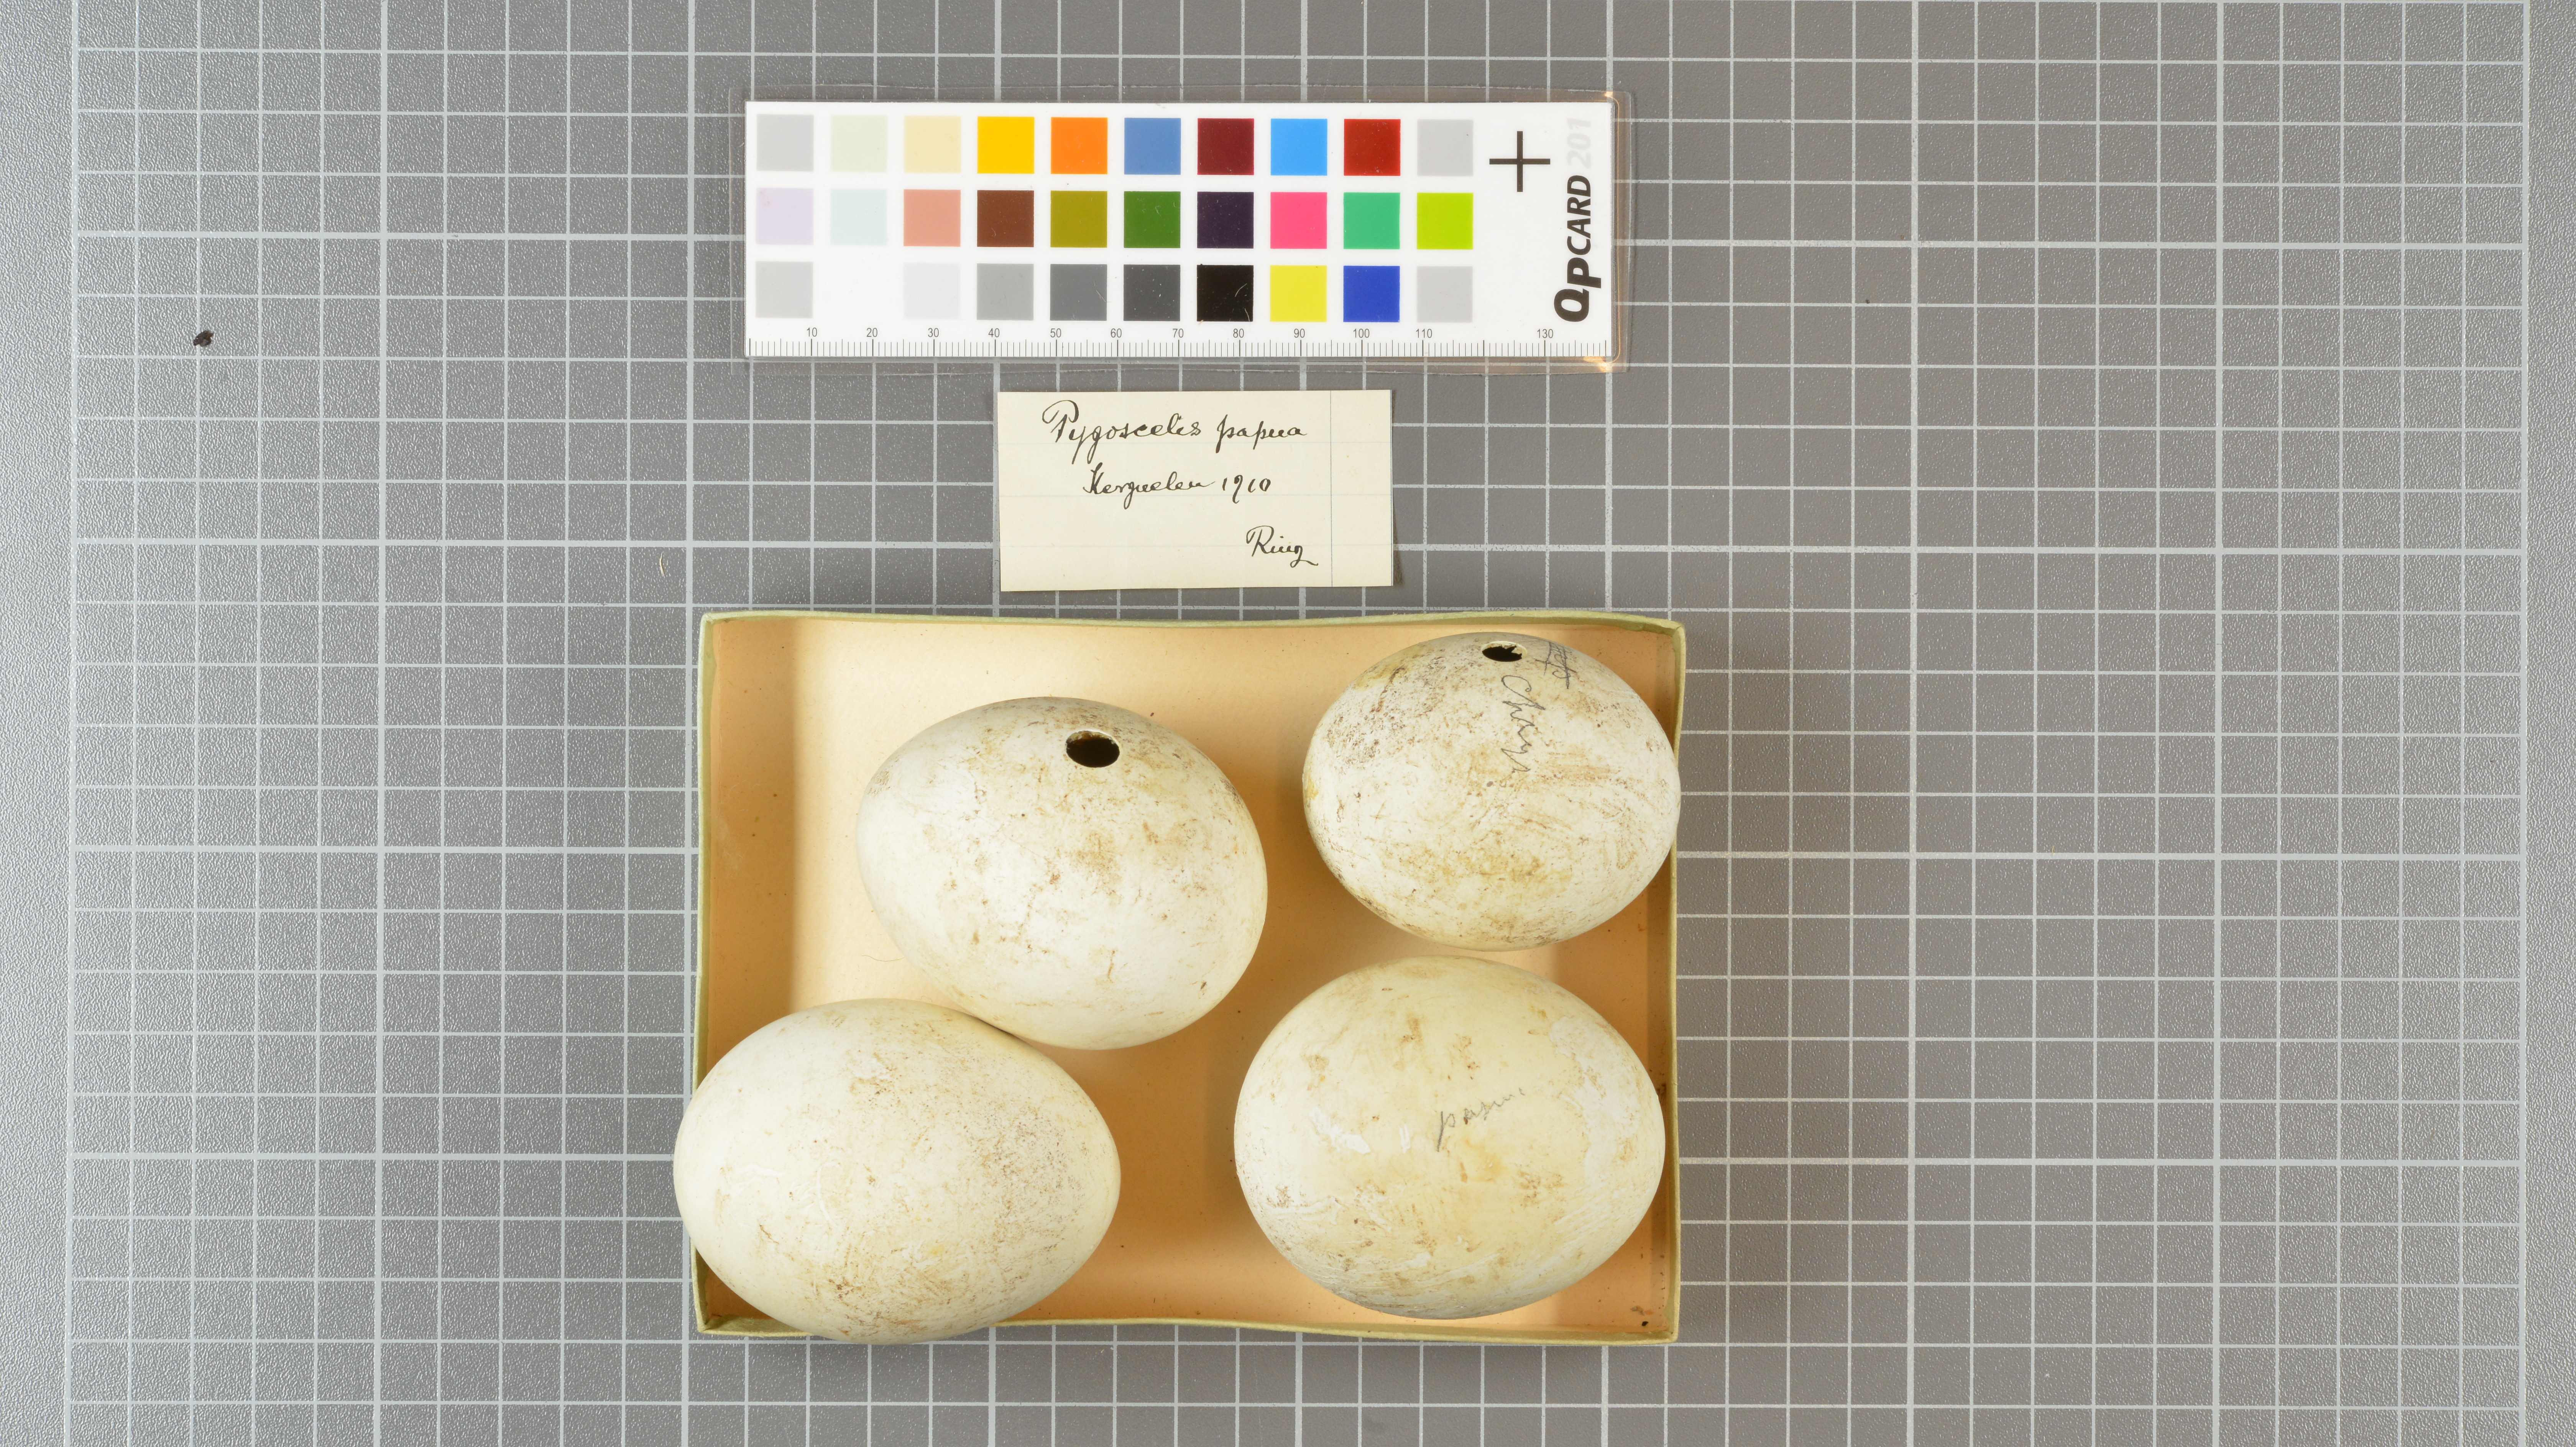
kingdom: Animalia
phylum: Chordata
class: Aves
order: Sphenisciformes
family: Spheniscidae
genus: Pygoscelis
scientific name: Pygoscelis papua
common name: Gentoo penguin
